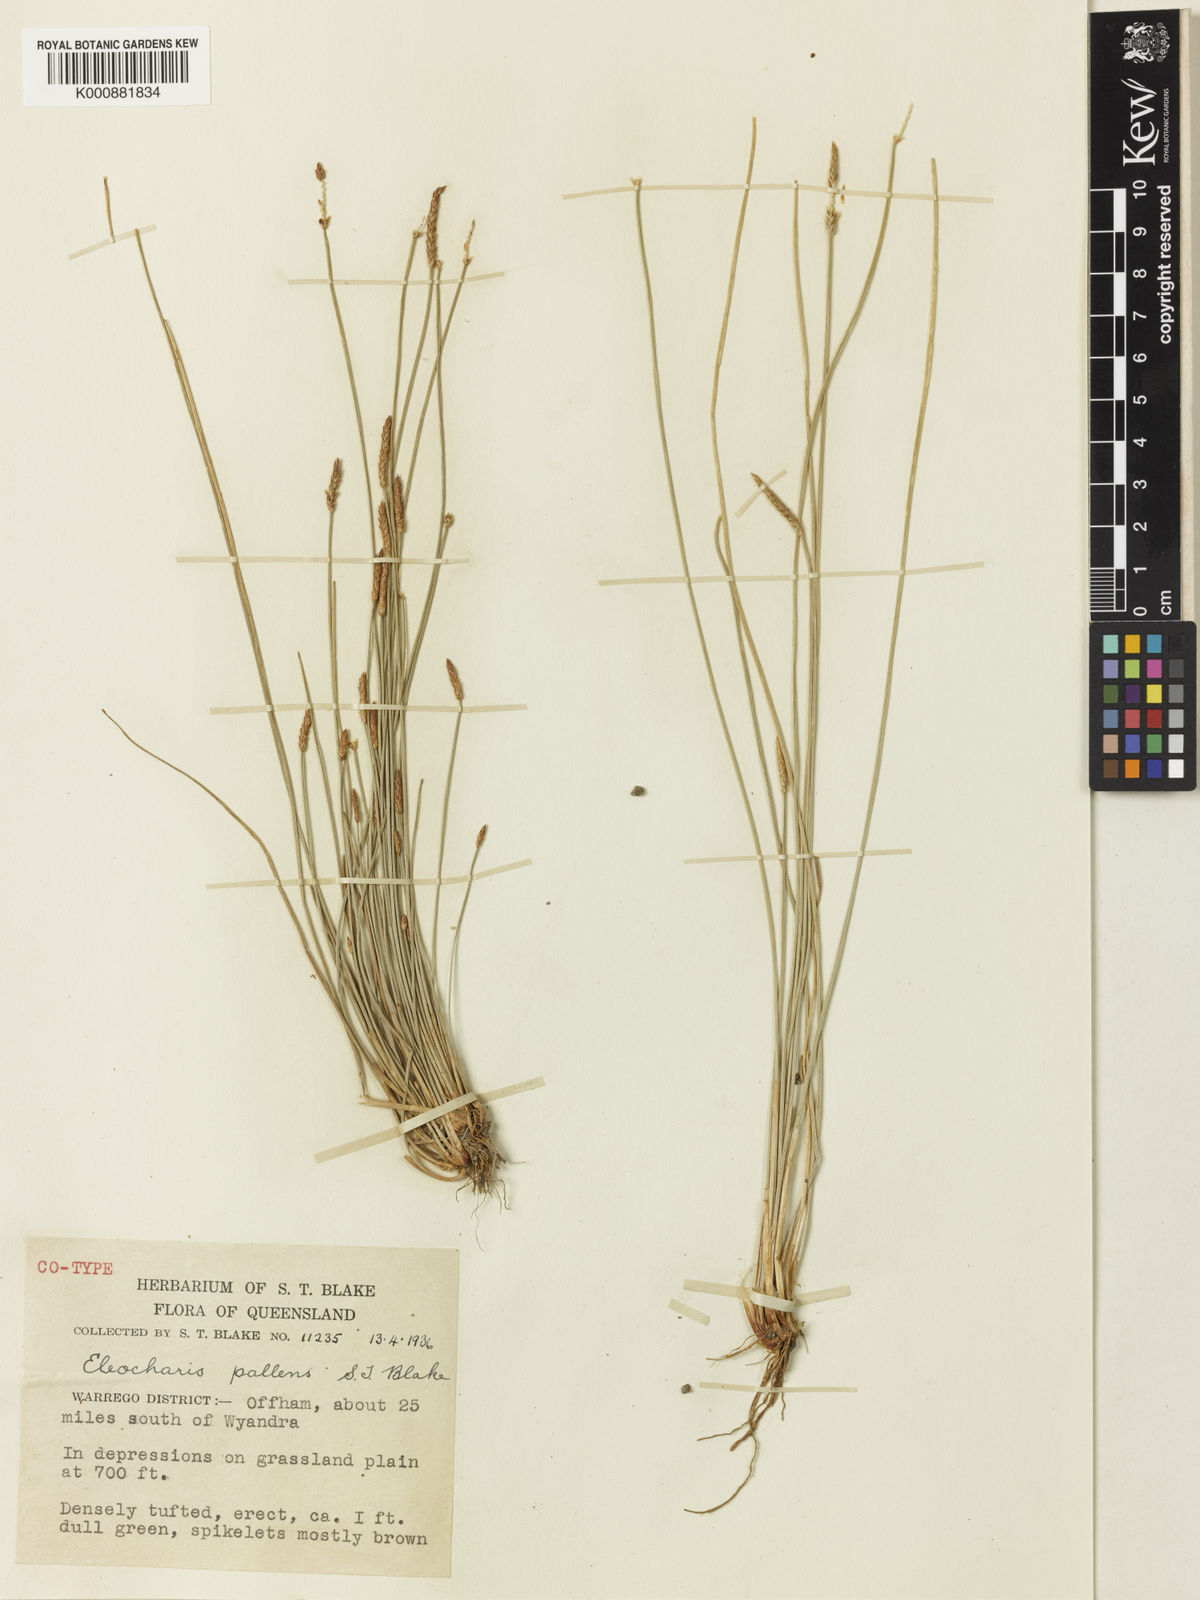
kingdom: Plantae
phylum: Tracheophyta
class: Liliopsida
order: Poales
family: Cyperaceae
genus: Eleocharis
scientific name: Eleocharis acuta
